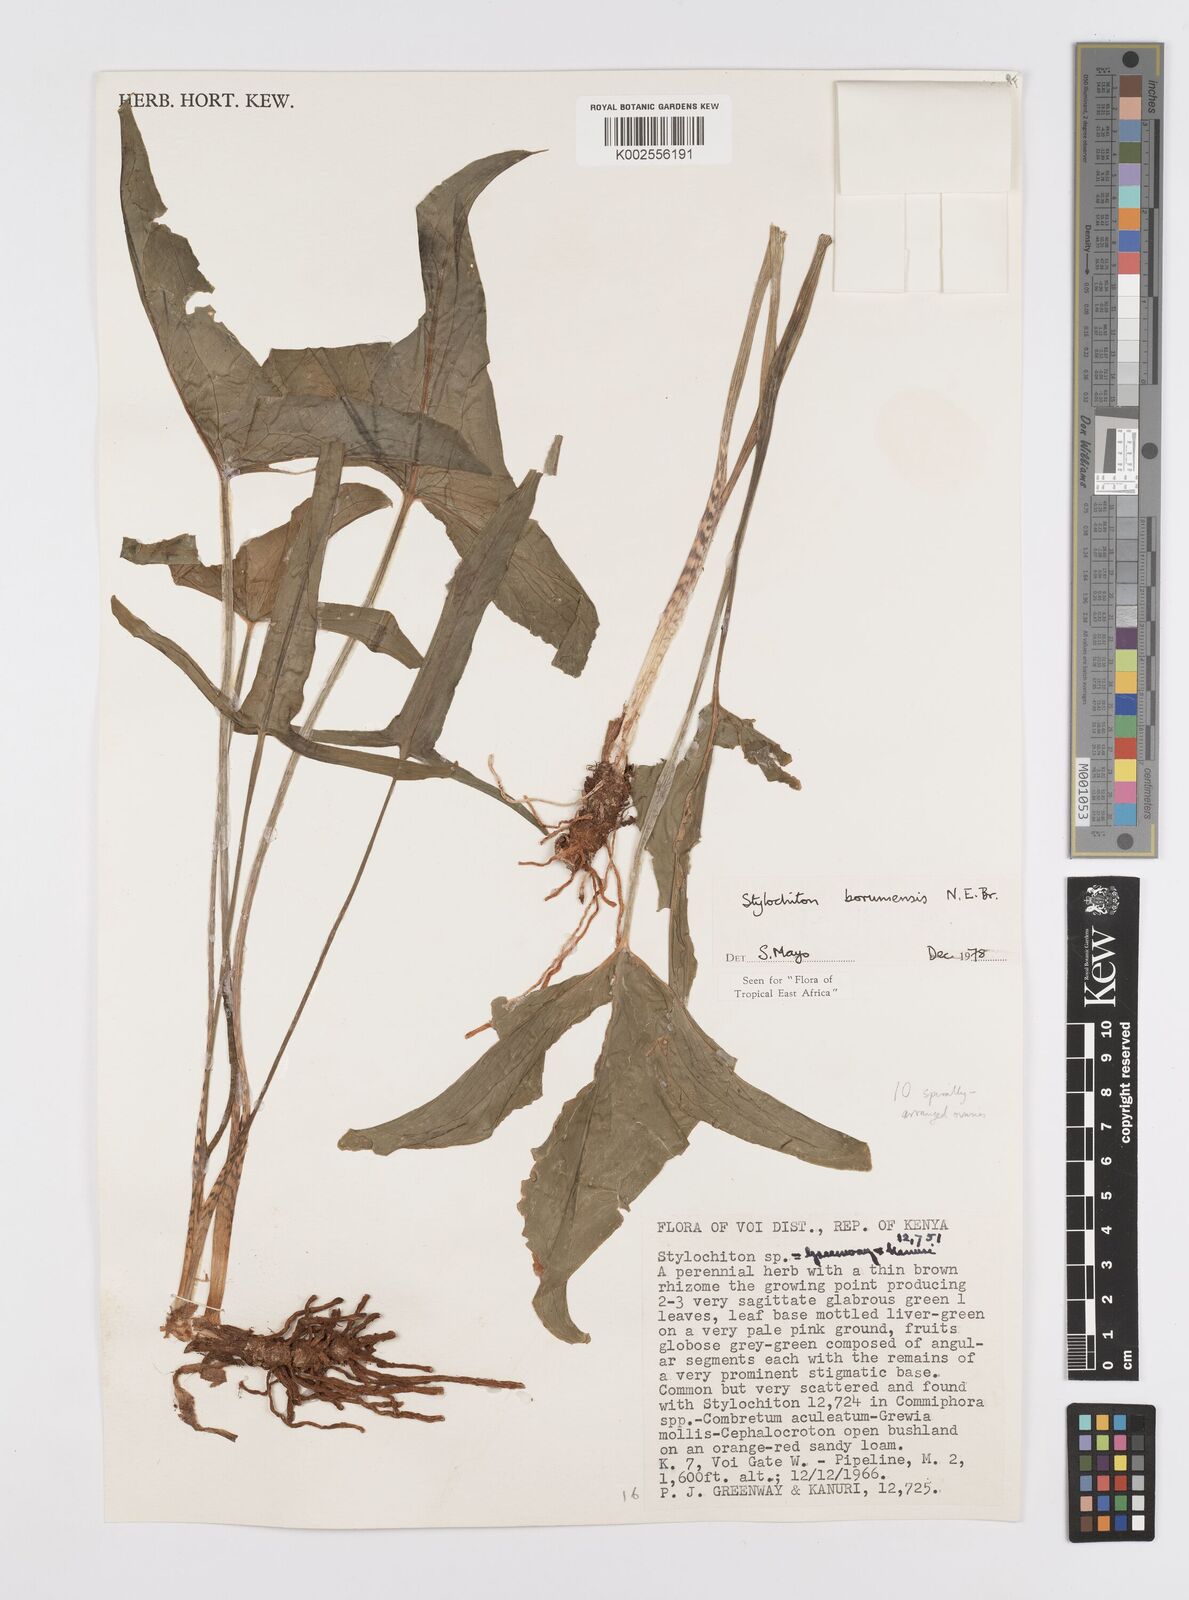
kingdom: Plantae
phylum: Tracheophyta
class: Liliopsida
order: Alismatales
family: Araceae
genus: Stylochaeton
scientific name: Stylochaeton borumense
